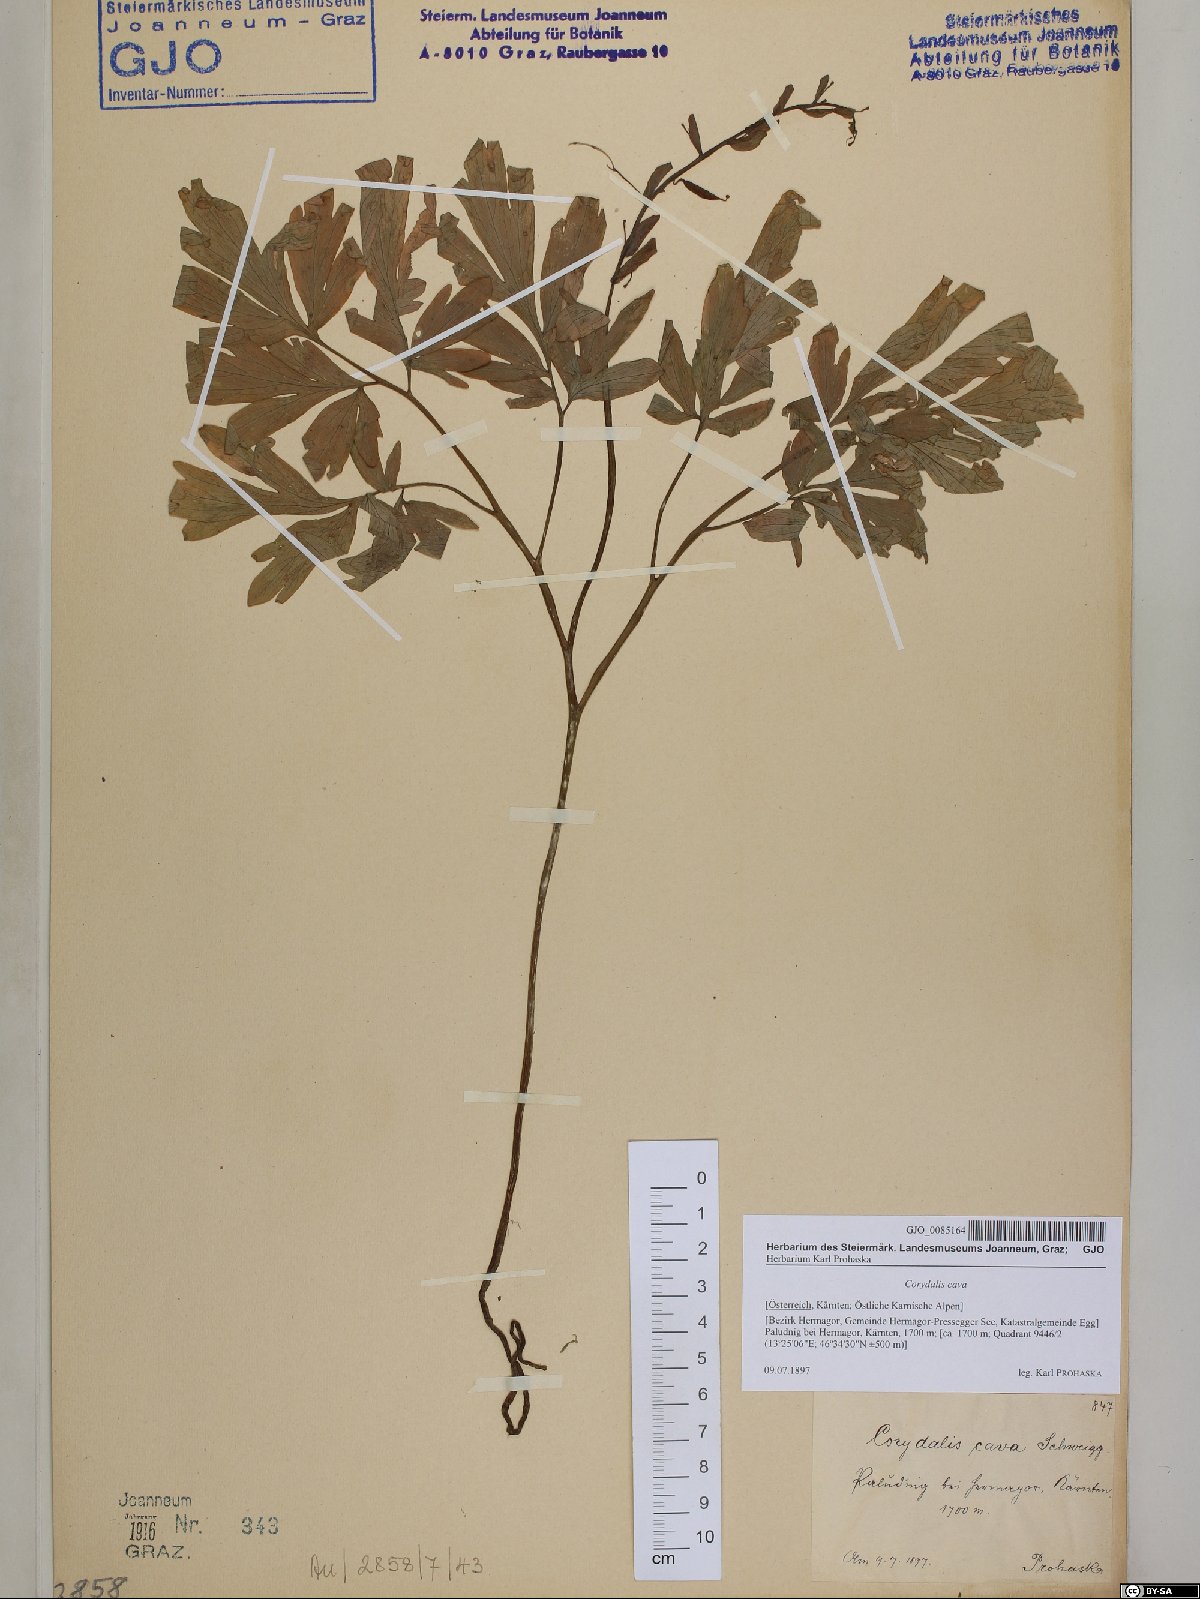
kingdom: Plantae
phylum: Tracheophyta
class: Magnoliopsida
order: Ranunculales
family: Papaveraceae
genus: Corydalis
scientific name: Corydalis cava
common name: Hollowroot
